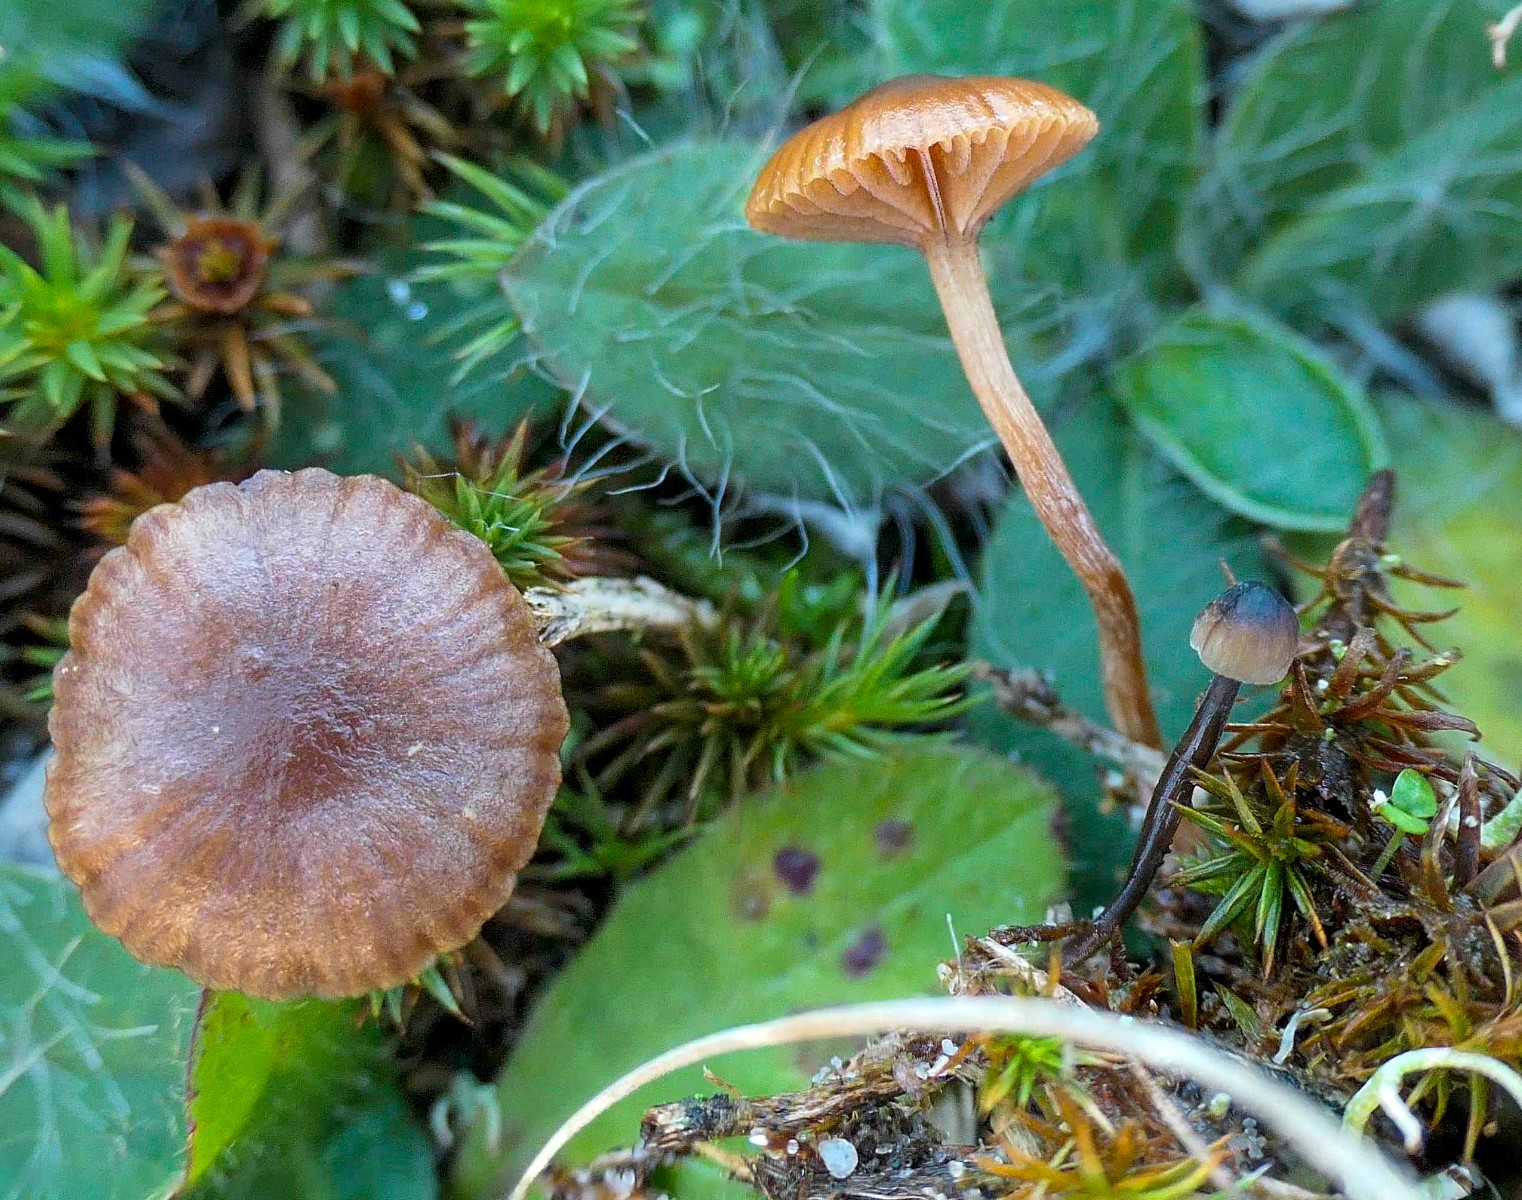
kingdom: Fungi
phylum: Basidiomycota
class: Agaricomycetes
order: Agaricales
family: Strophariaceae
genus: Deconica
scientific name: Deconica montana
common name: rødbrun stråhat
